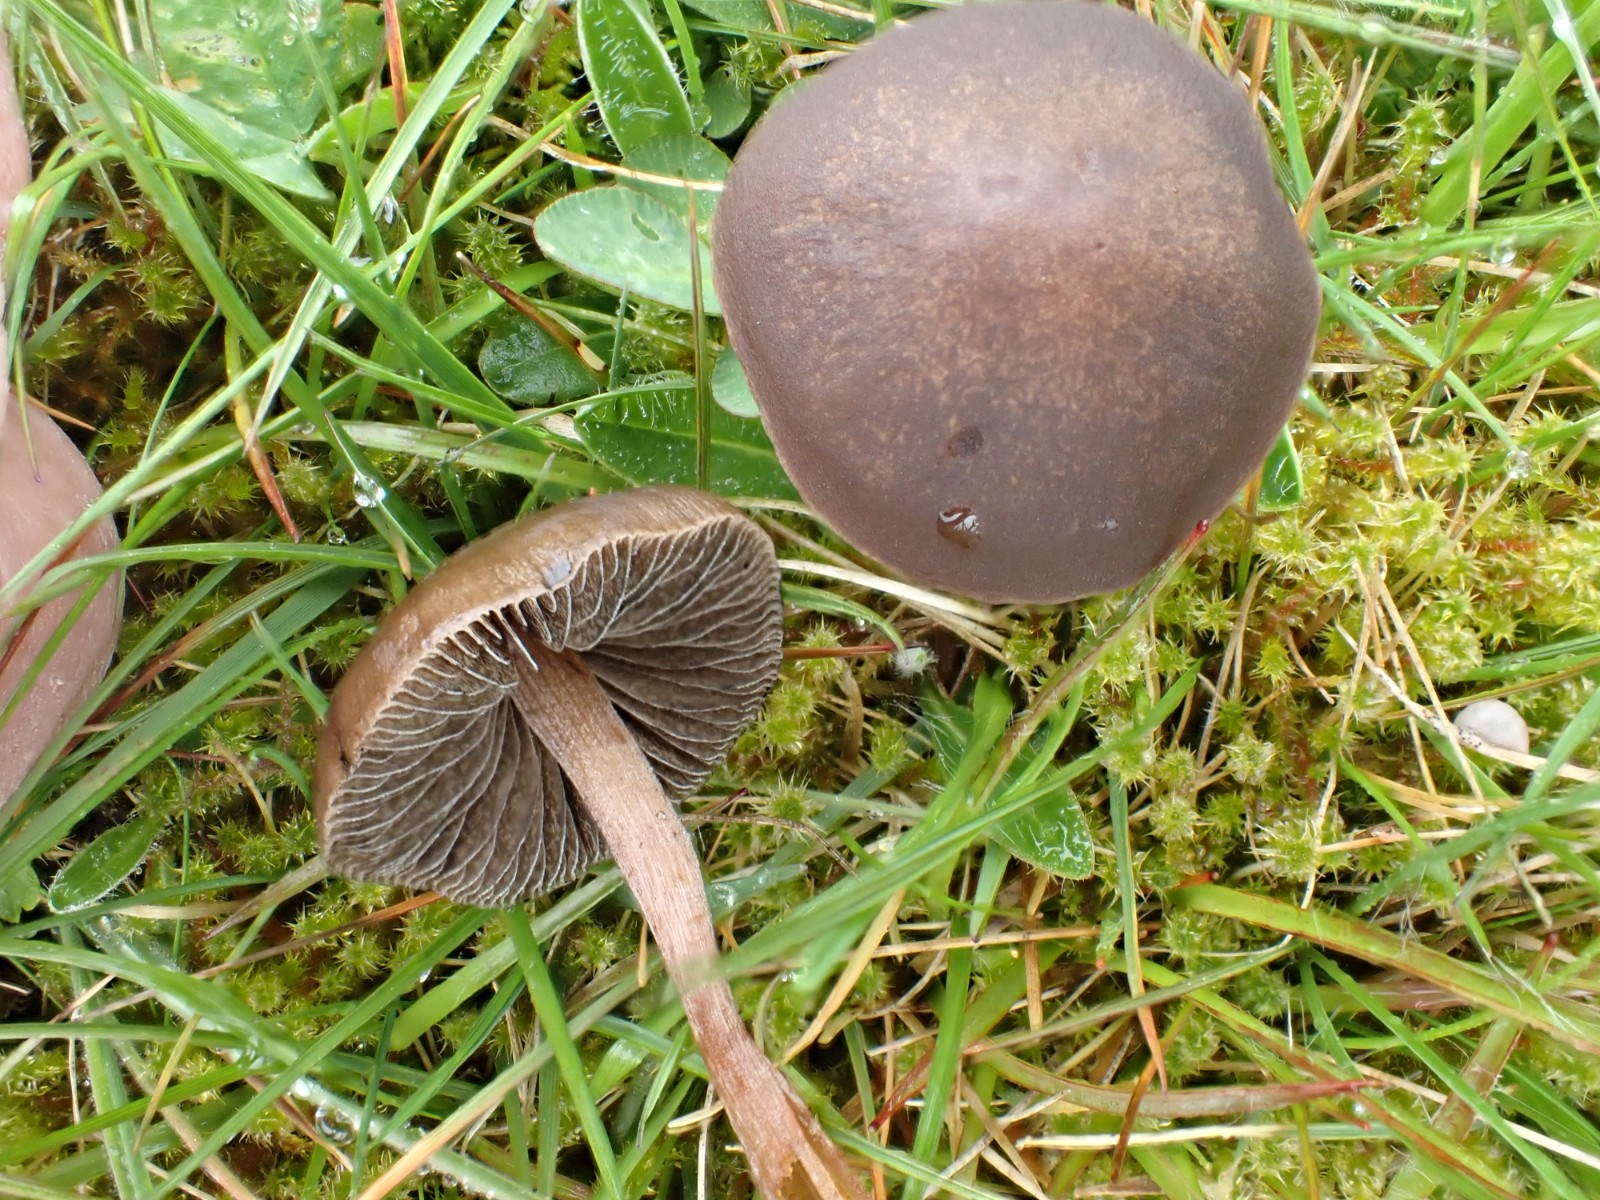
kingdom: Fungi
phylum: Basidiomycota
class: Agaricomycetes
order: Agaricales
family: Bolbitiaceae
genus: Panaeolus
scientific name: Panaeolus fimicola
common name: tidlig glanshat
